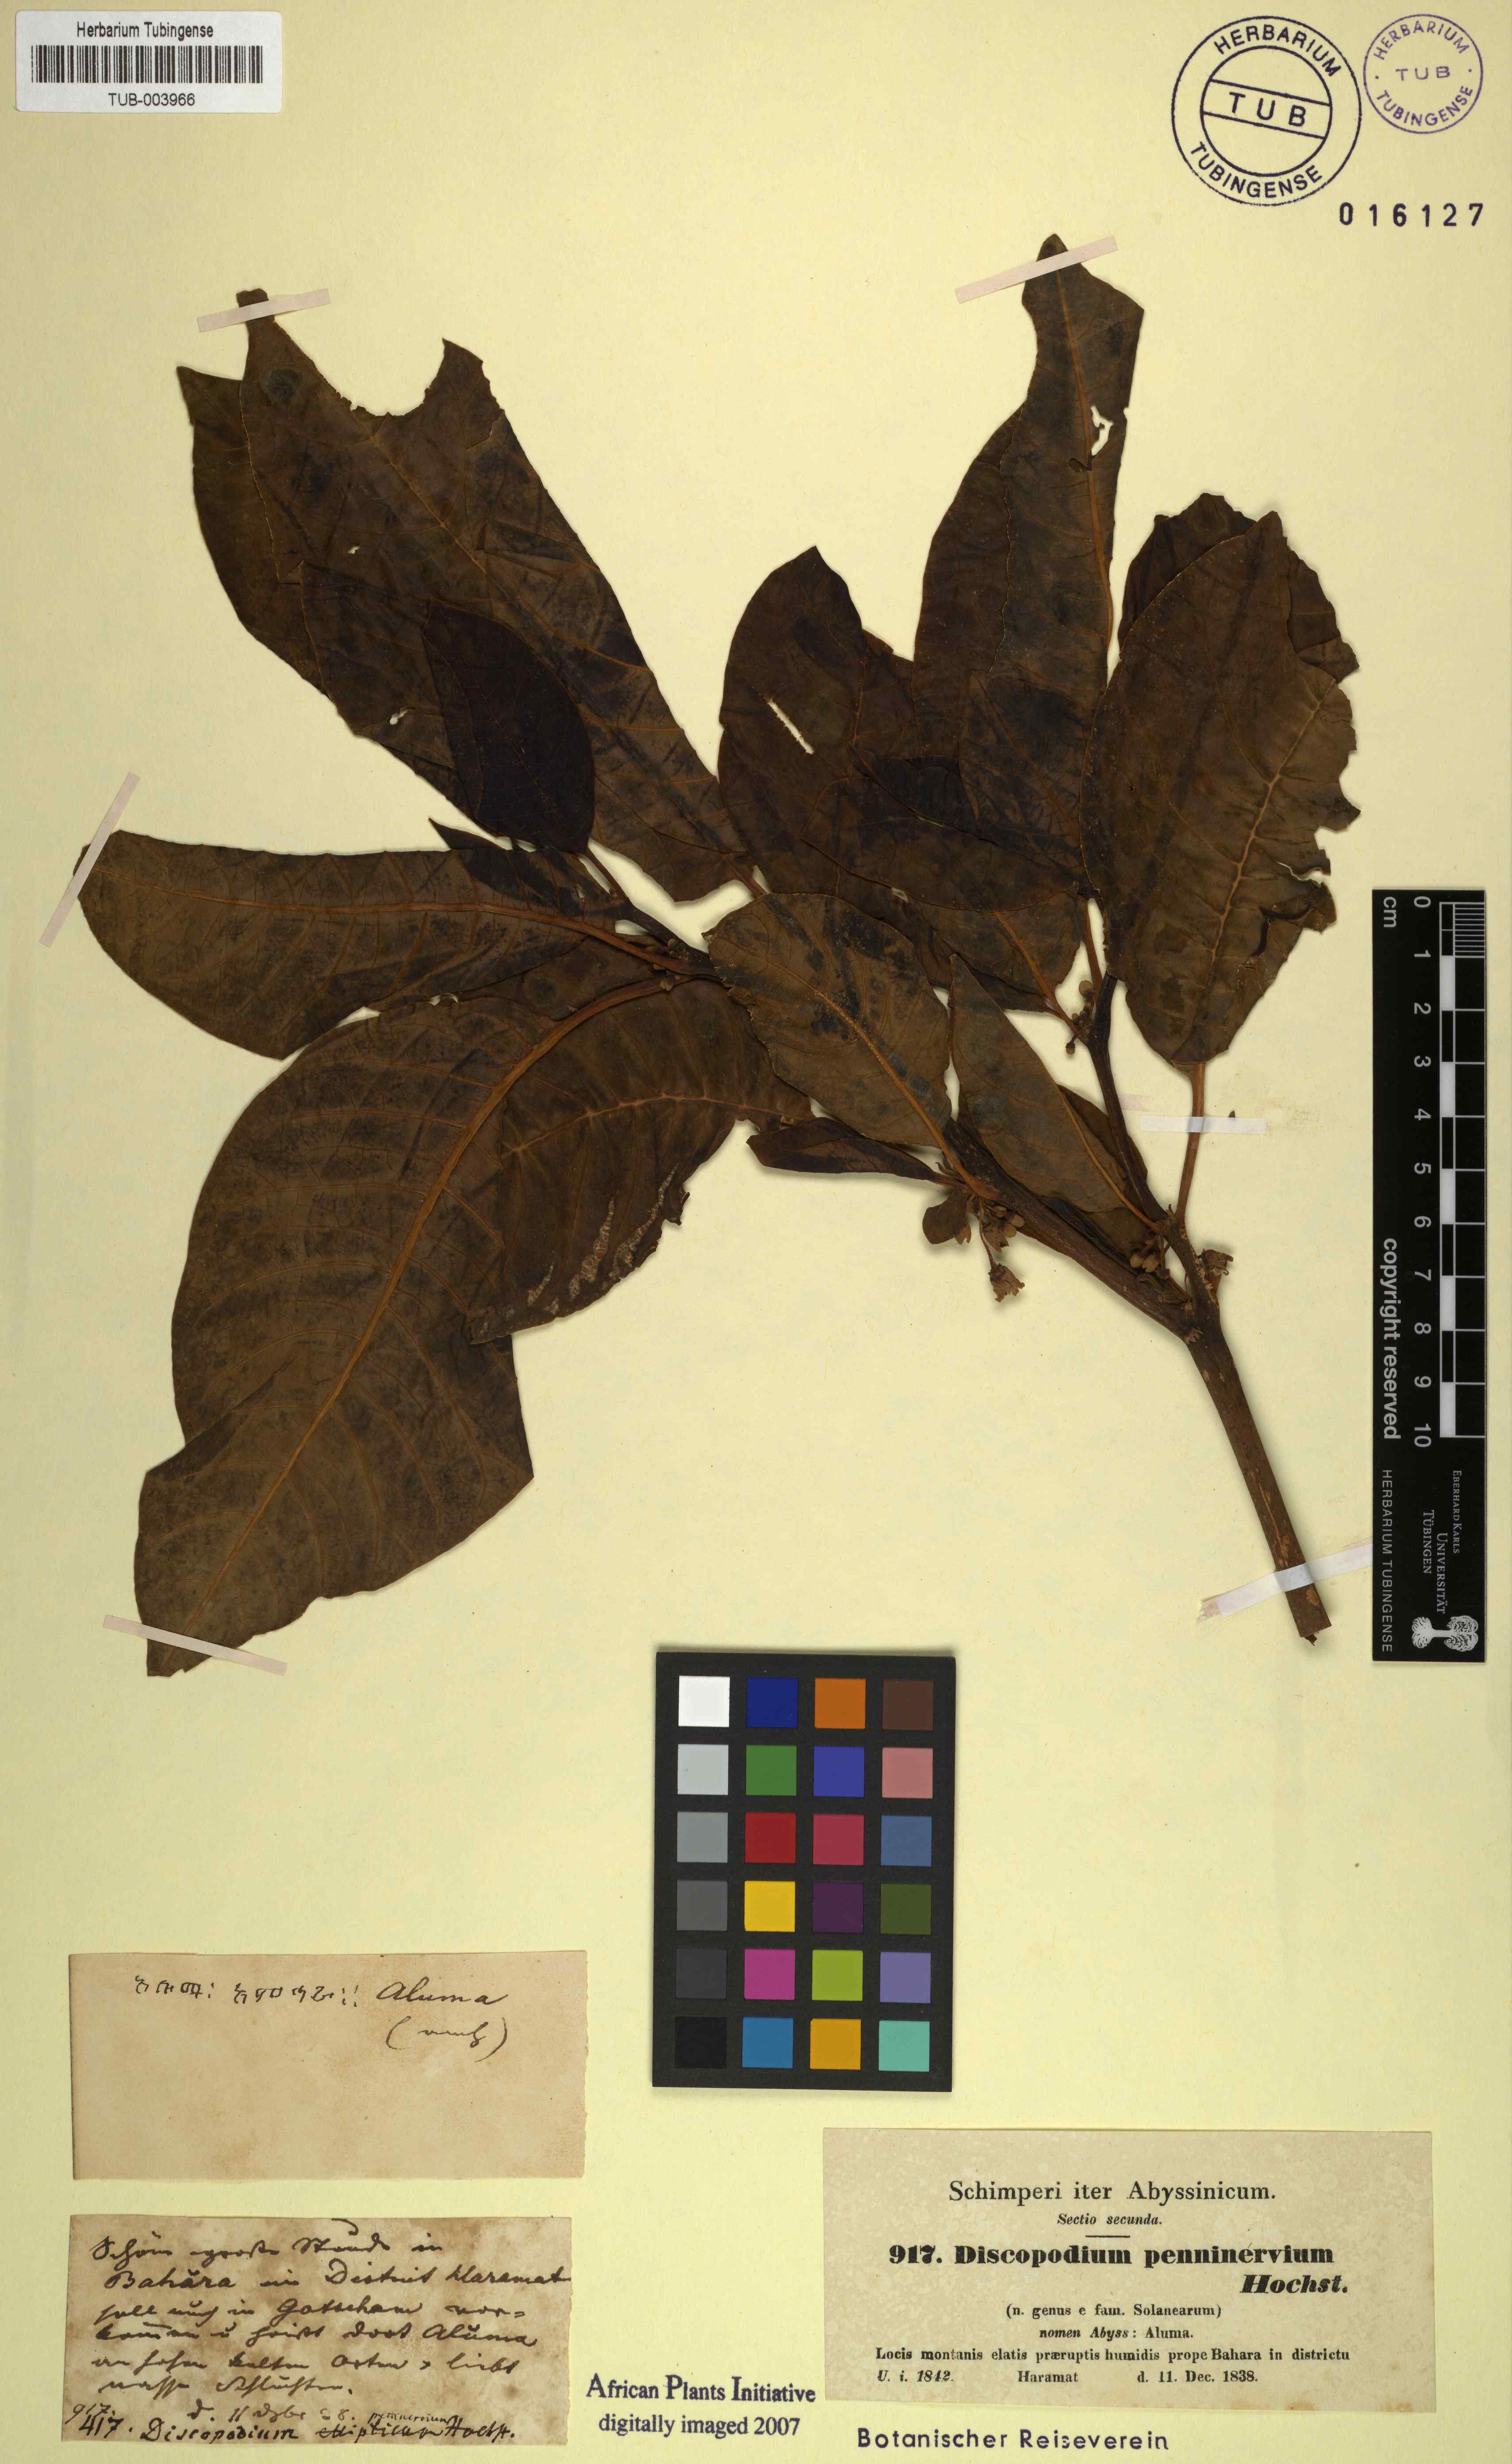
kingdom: Plantae
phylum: Tracheophyta
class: Magnoliopsida
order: Solanales
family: Solanaceae
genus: Discopodium
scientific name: Discopodium penninervium
